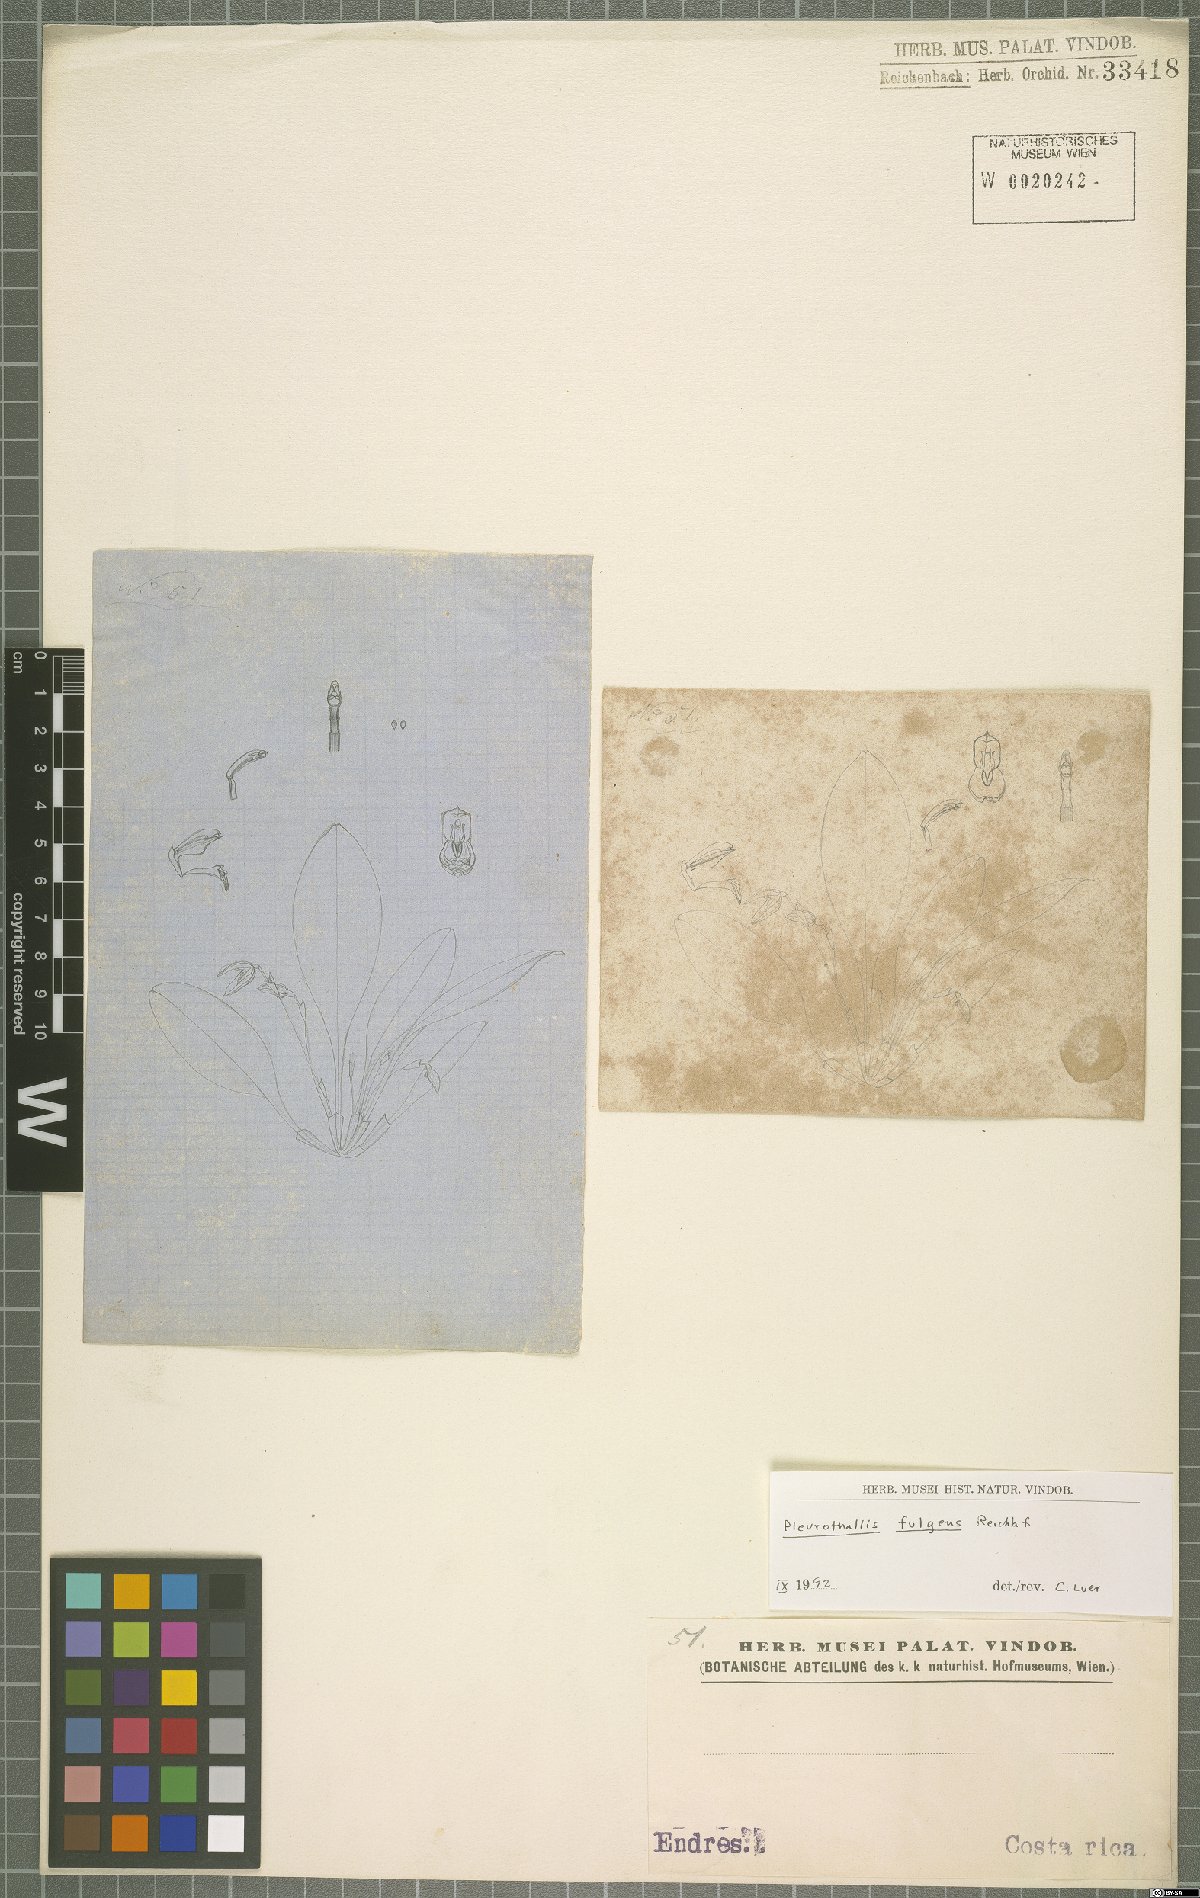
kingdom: Plantae
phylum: Tracheophyta
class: Liliopsida
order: Asparagales
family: Orchidaceae
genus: Specklinia
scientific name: Specklinia fulgens
